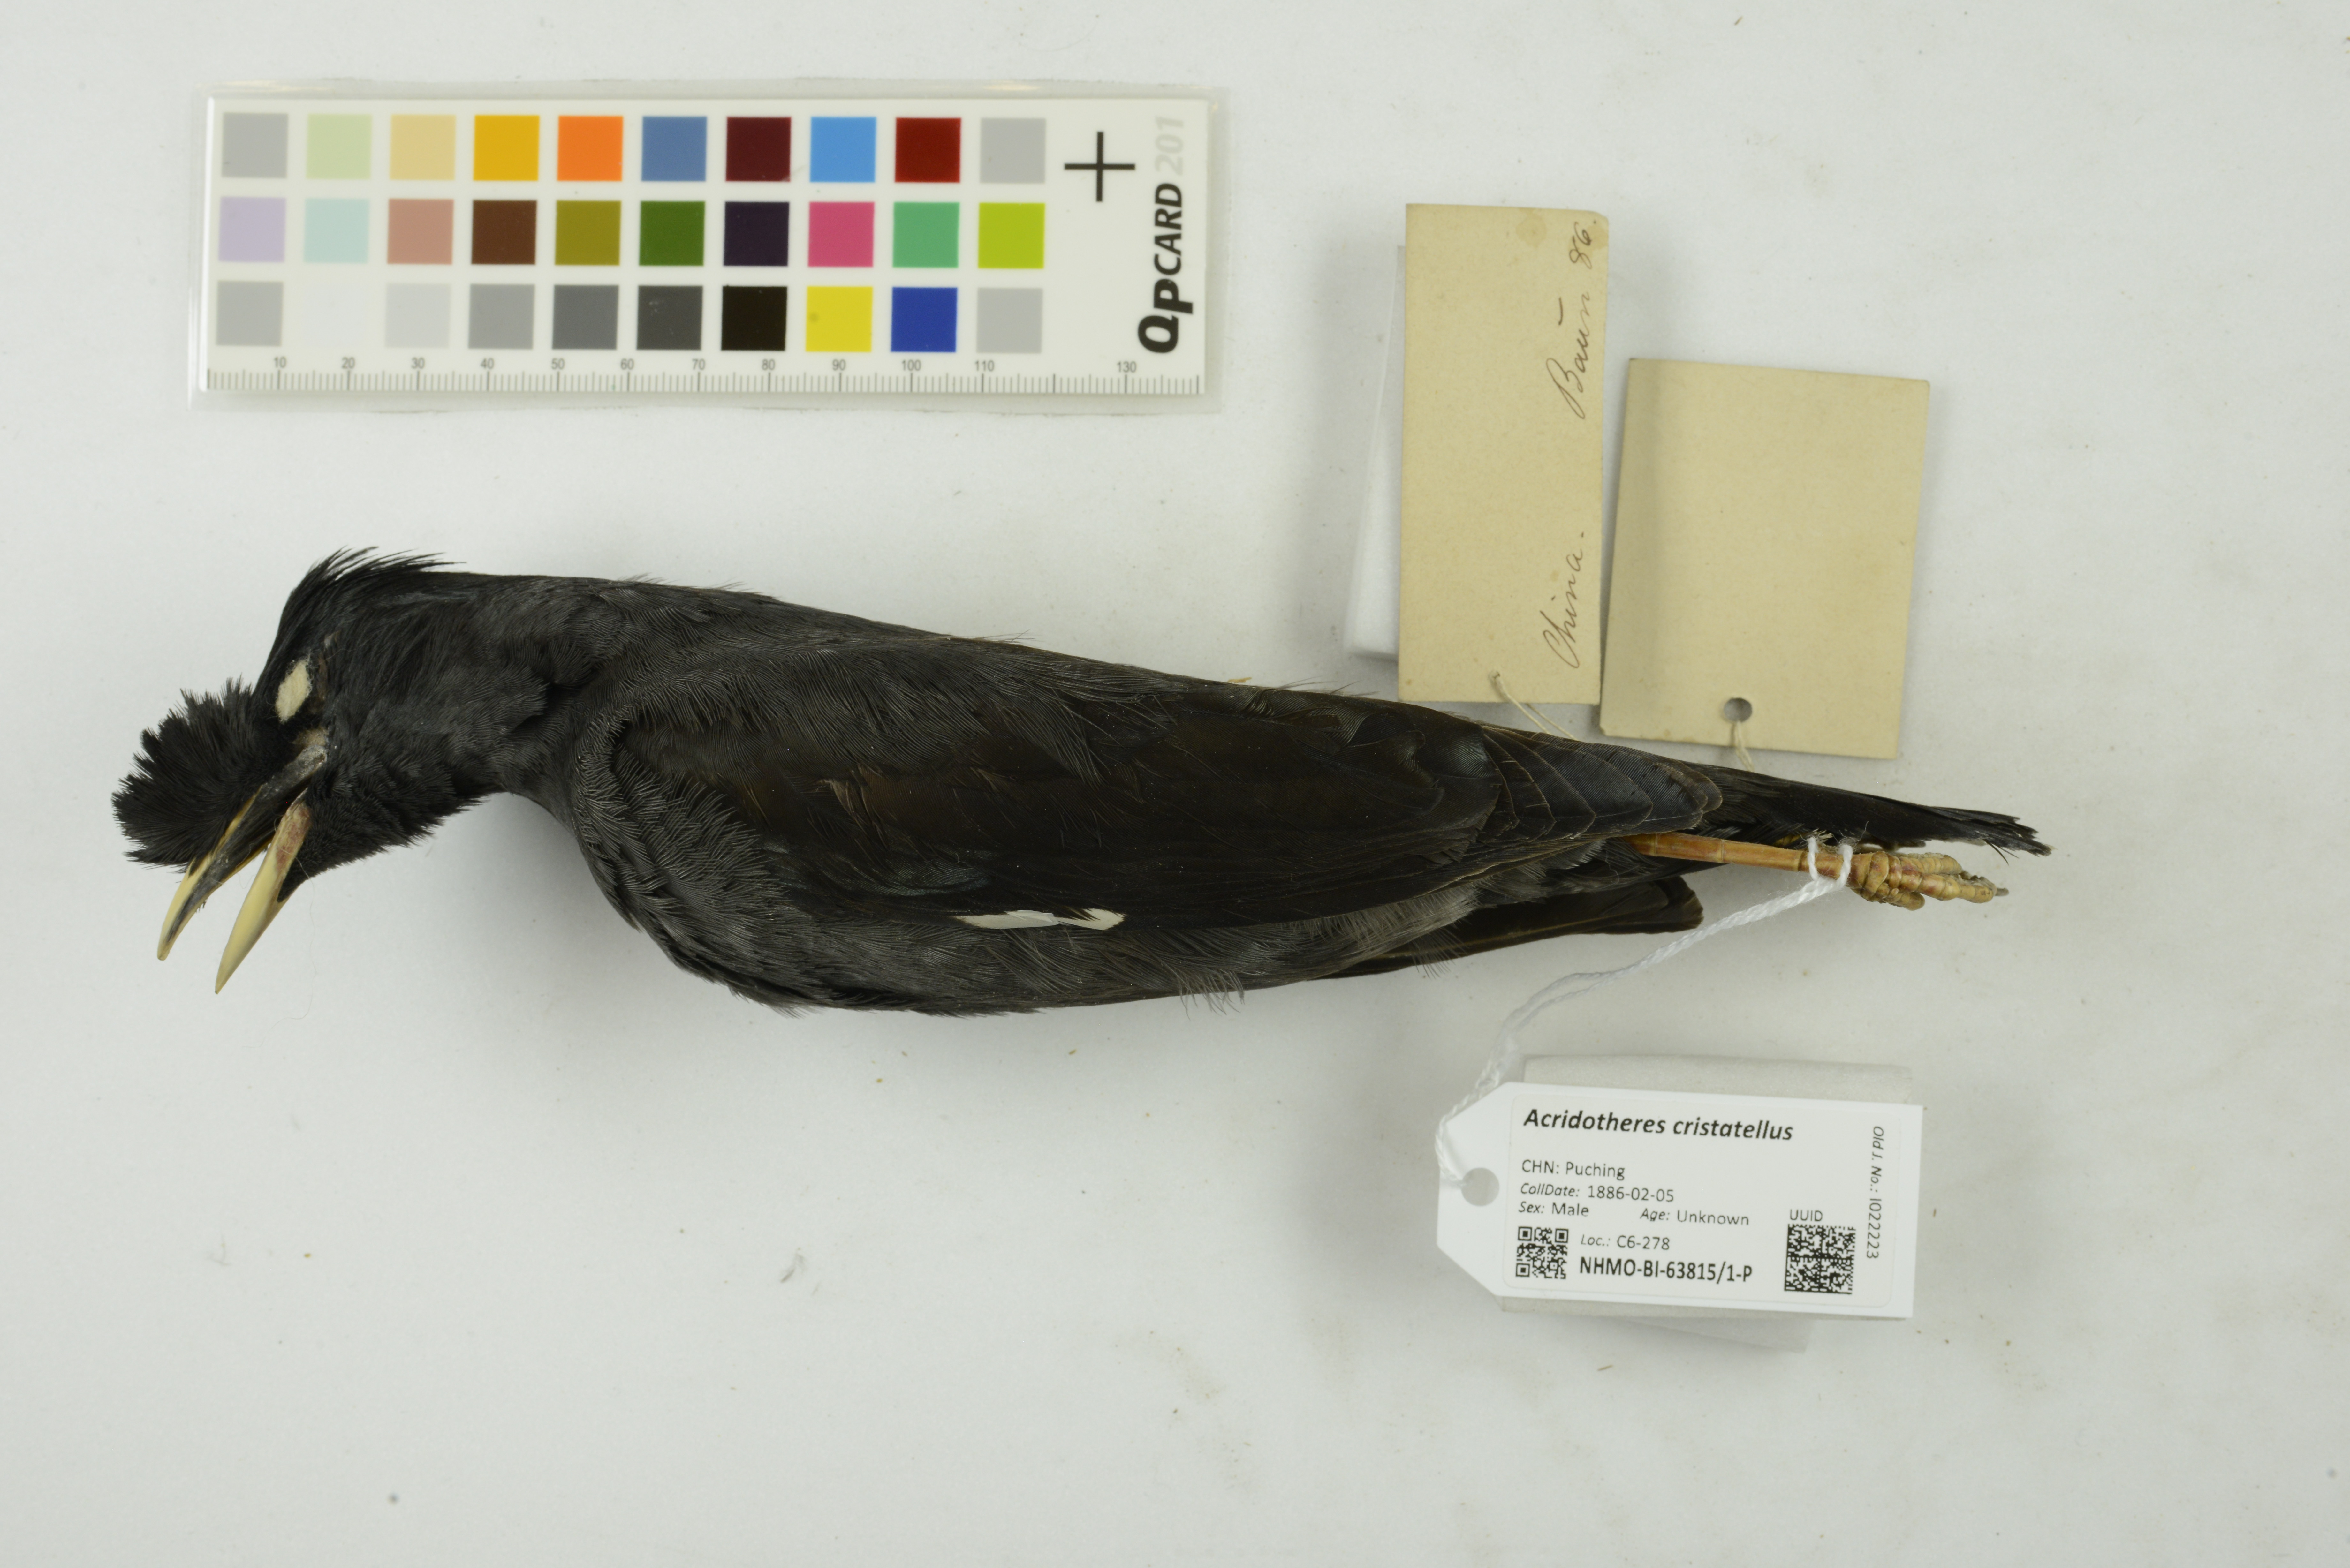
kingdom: Animalia
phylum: Chordata
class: Aves
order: Passeriformes
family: Sturnidae
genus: Acridotheres
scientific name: Acridotheres cristatellus
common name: Crested myna
